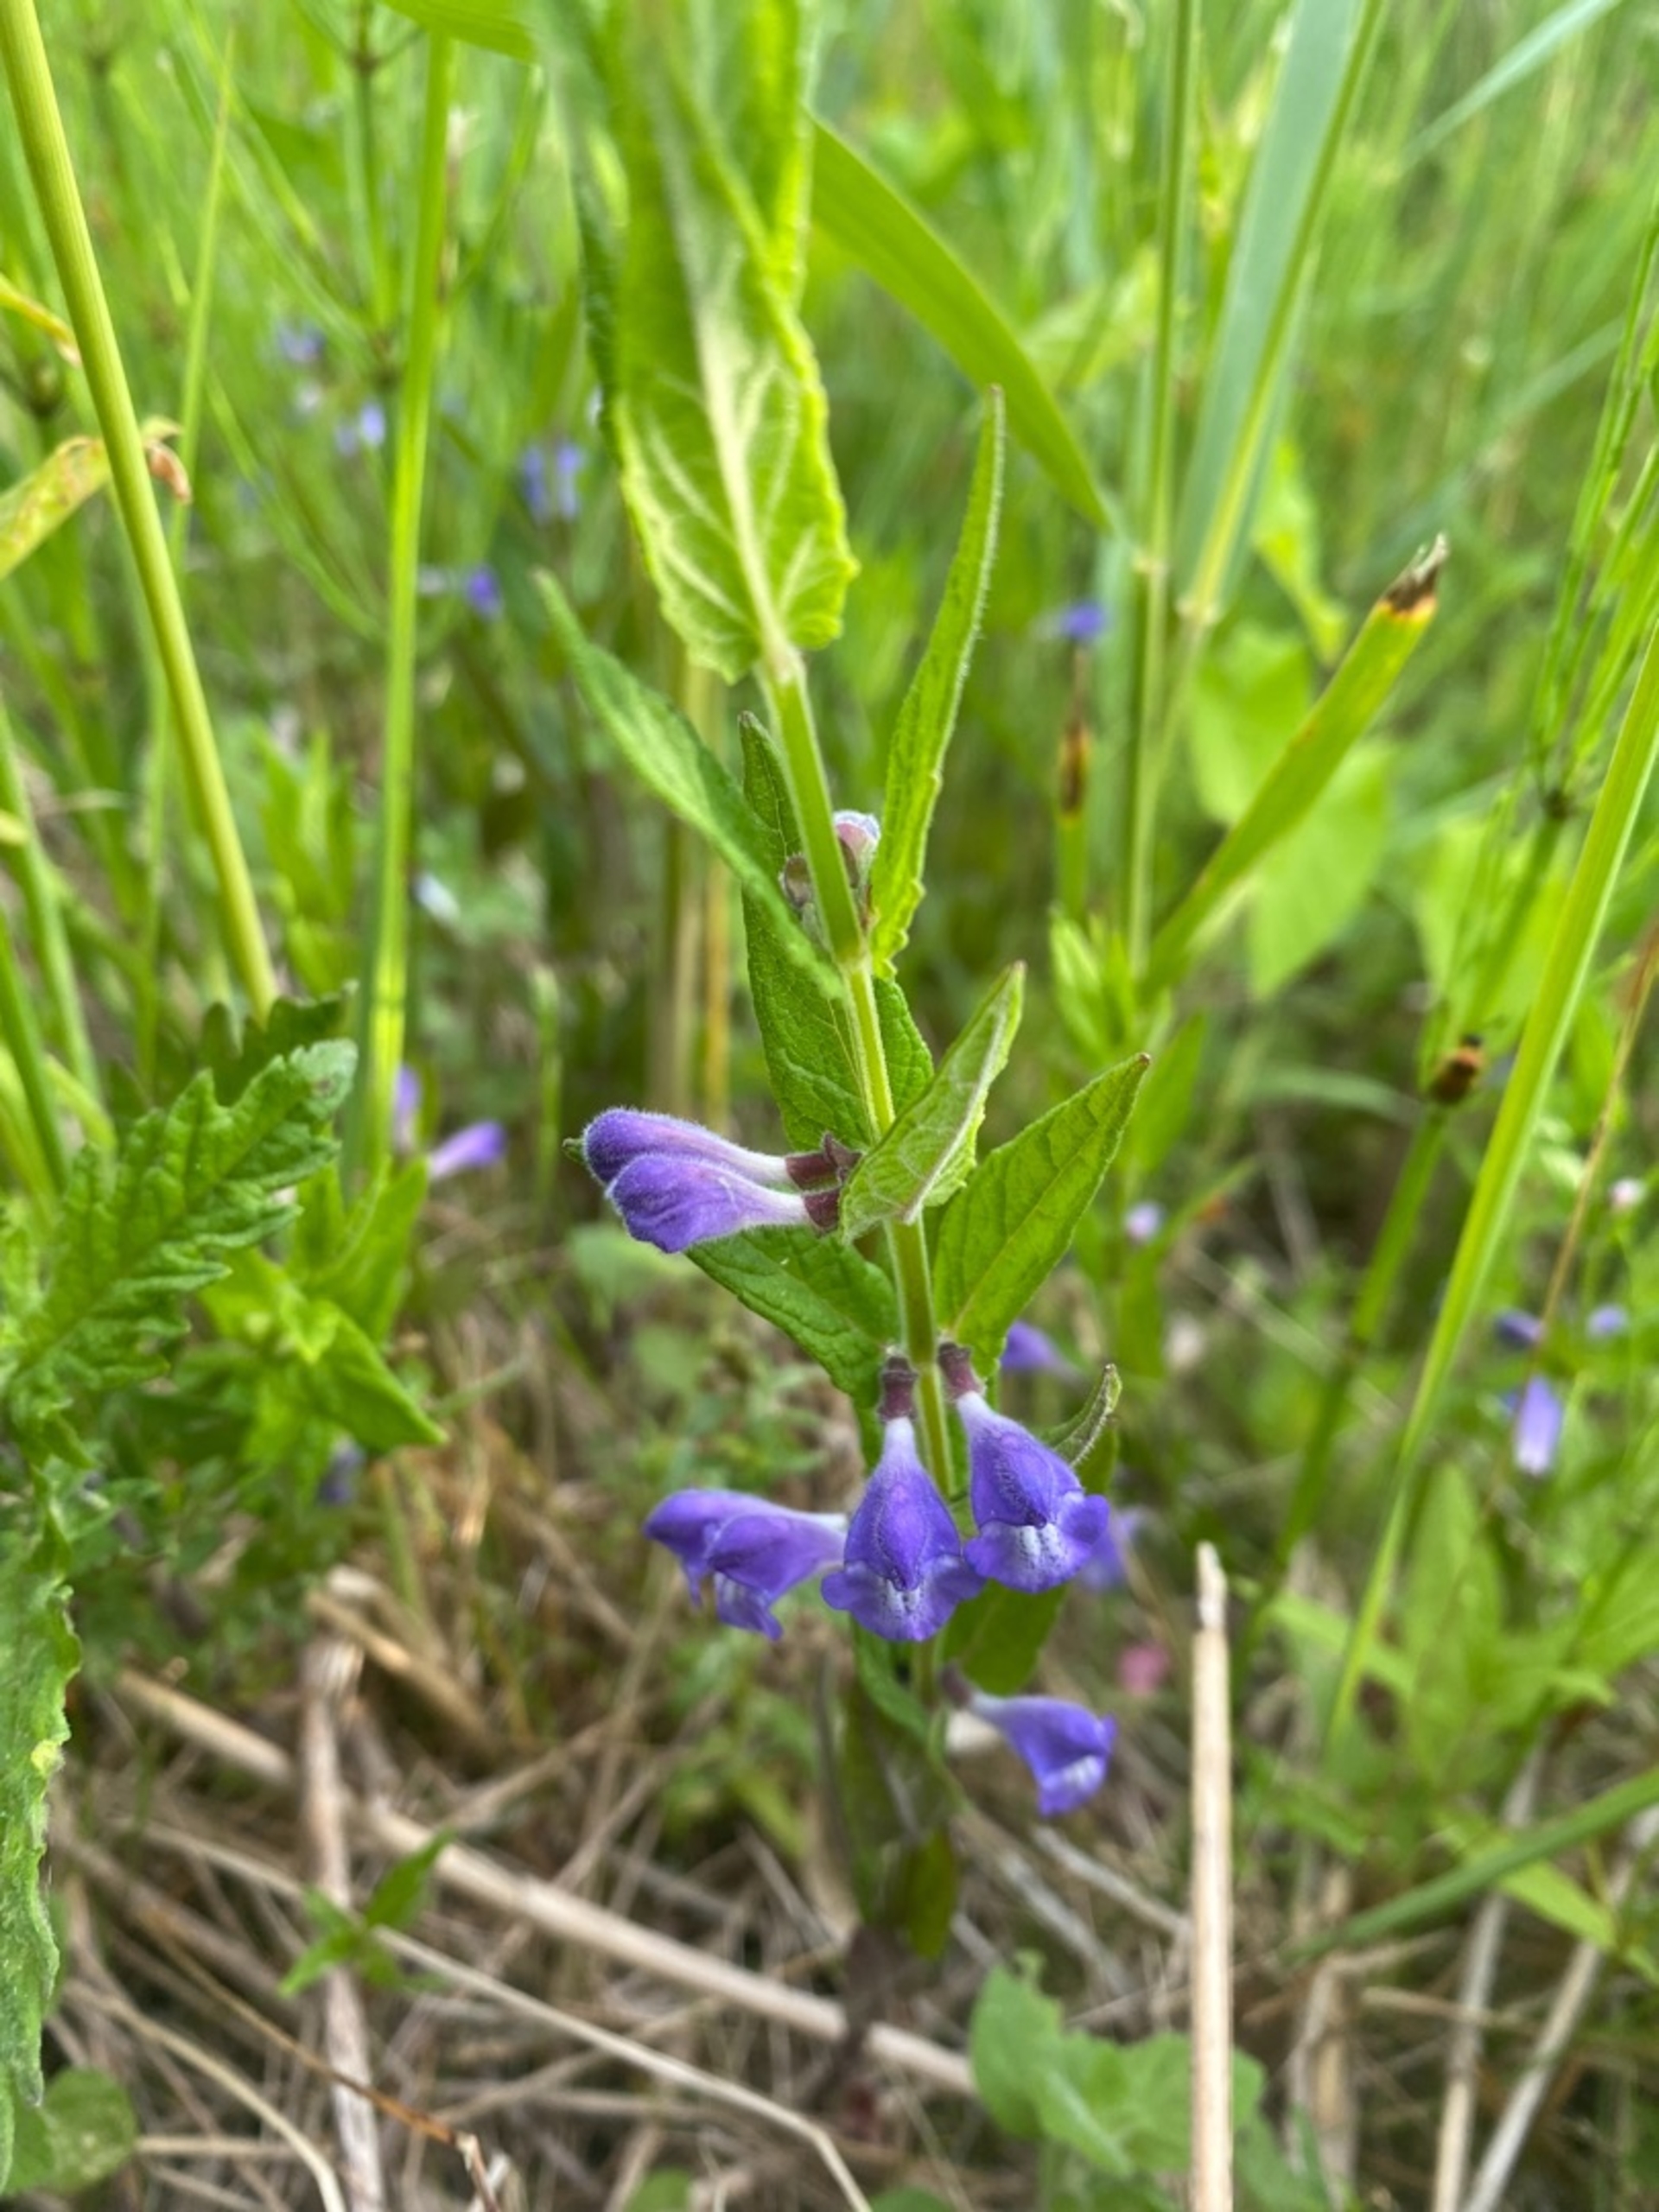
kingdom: Plantae
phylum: Tracheophyta
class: Magnoliopsida
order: Lamiales
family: Lamiaceae
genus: Scutellaria
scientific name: Scutellaria galericulata
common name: Almindelig skjolddrager
